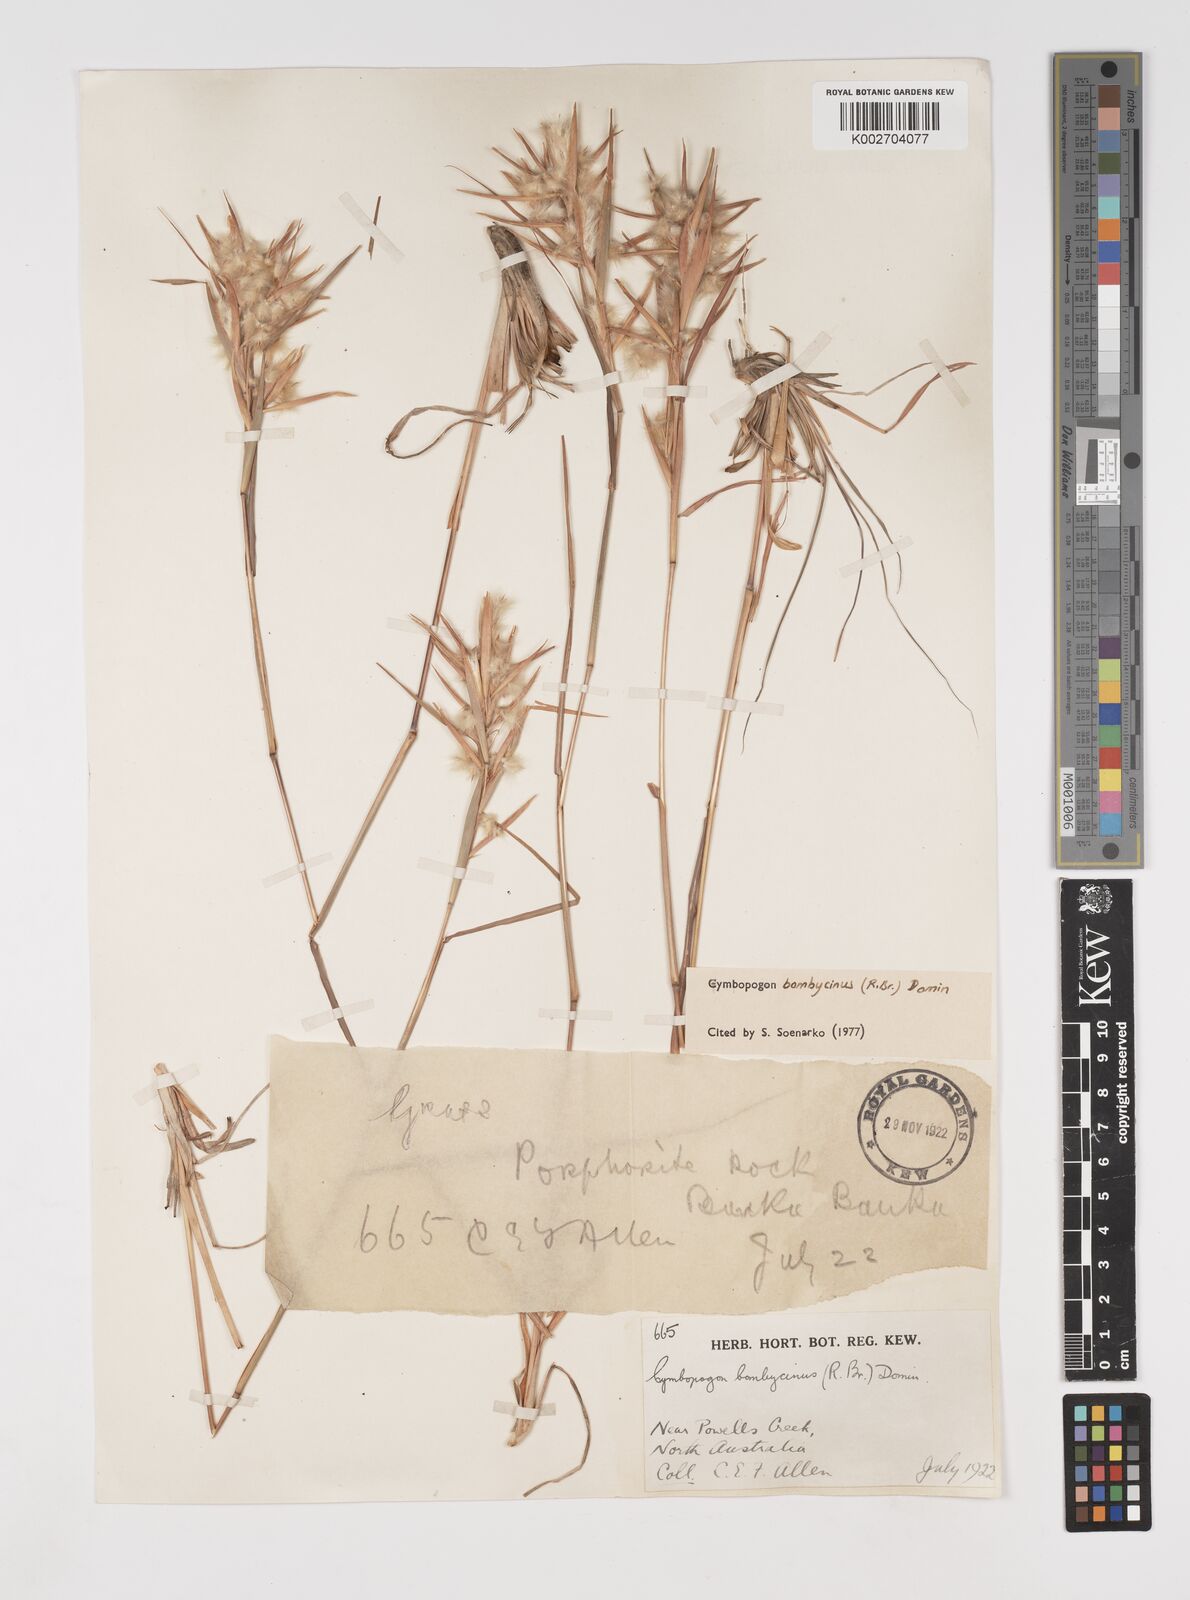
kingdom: Plantae
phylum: Tracheophyta
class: Liliopsida
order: Poales
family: Poaceae
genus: Cymbopogon
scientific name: Cymbopogon bombycinus
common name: Citronella grass
